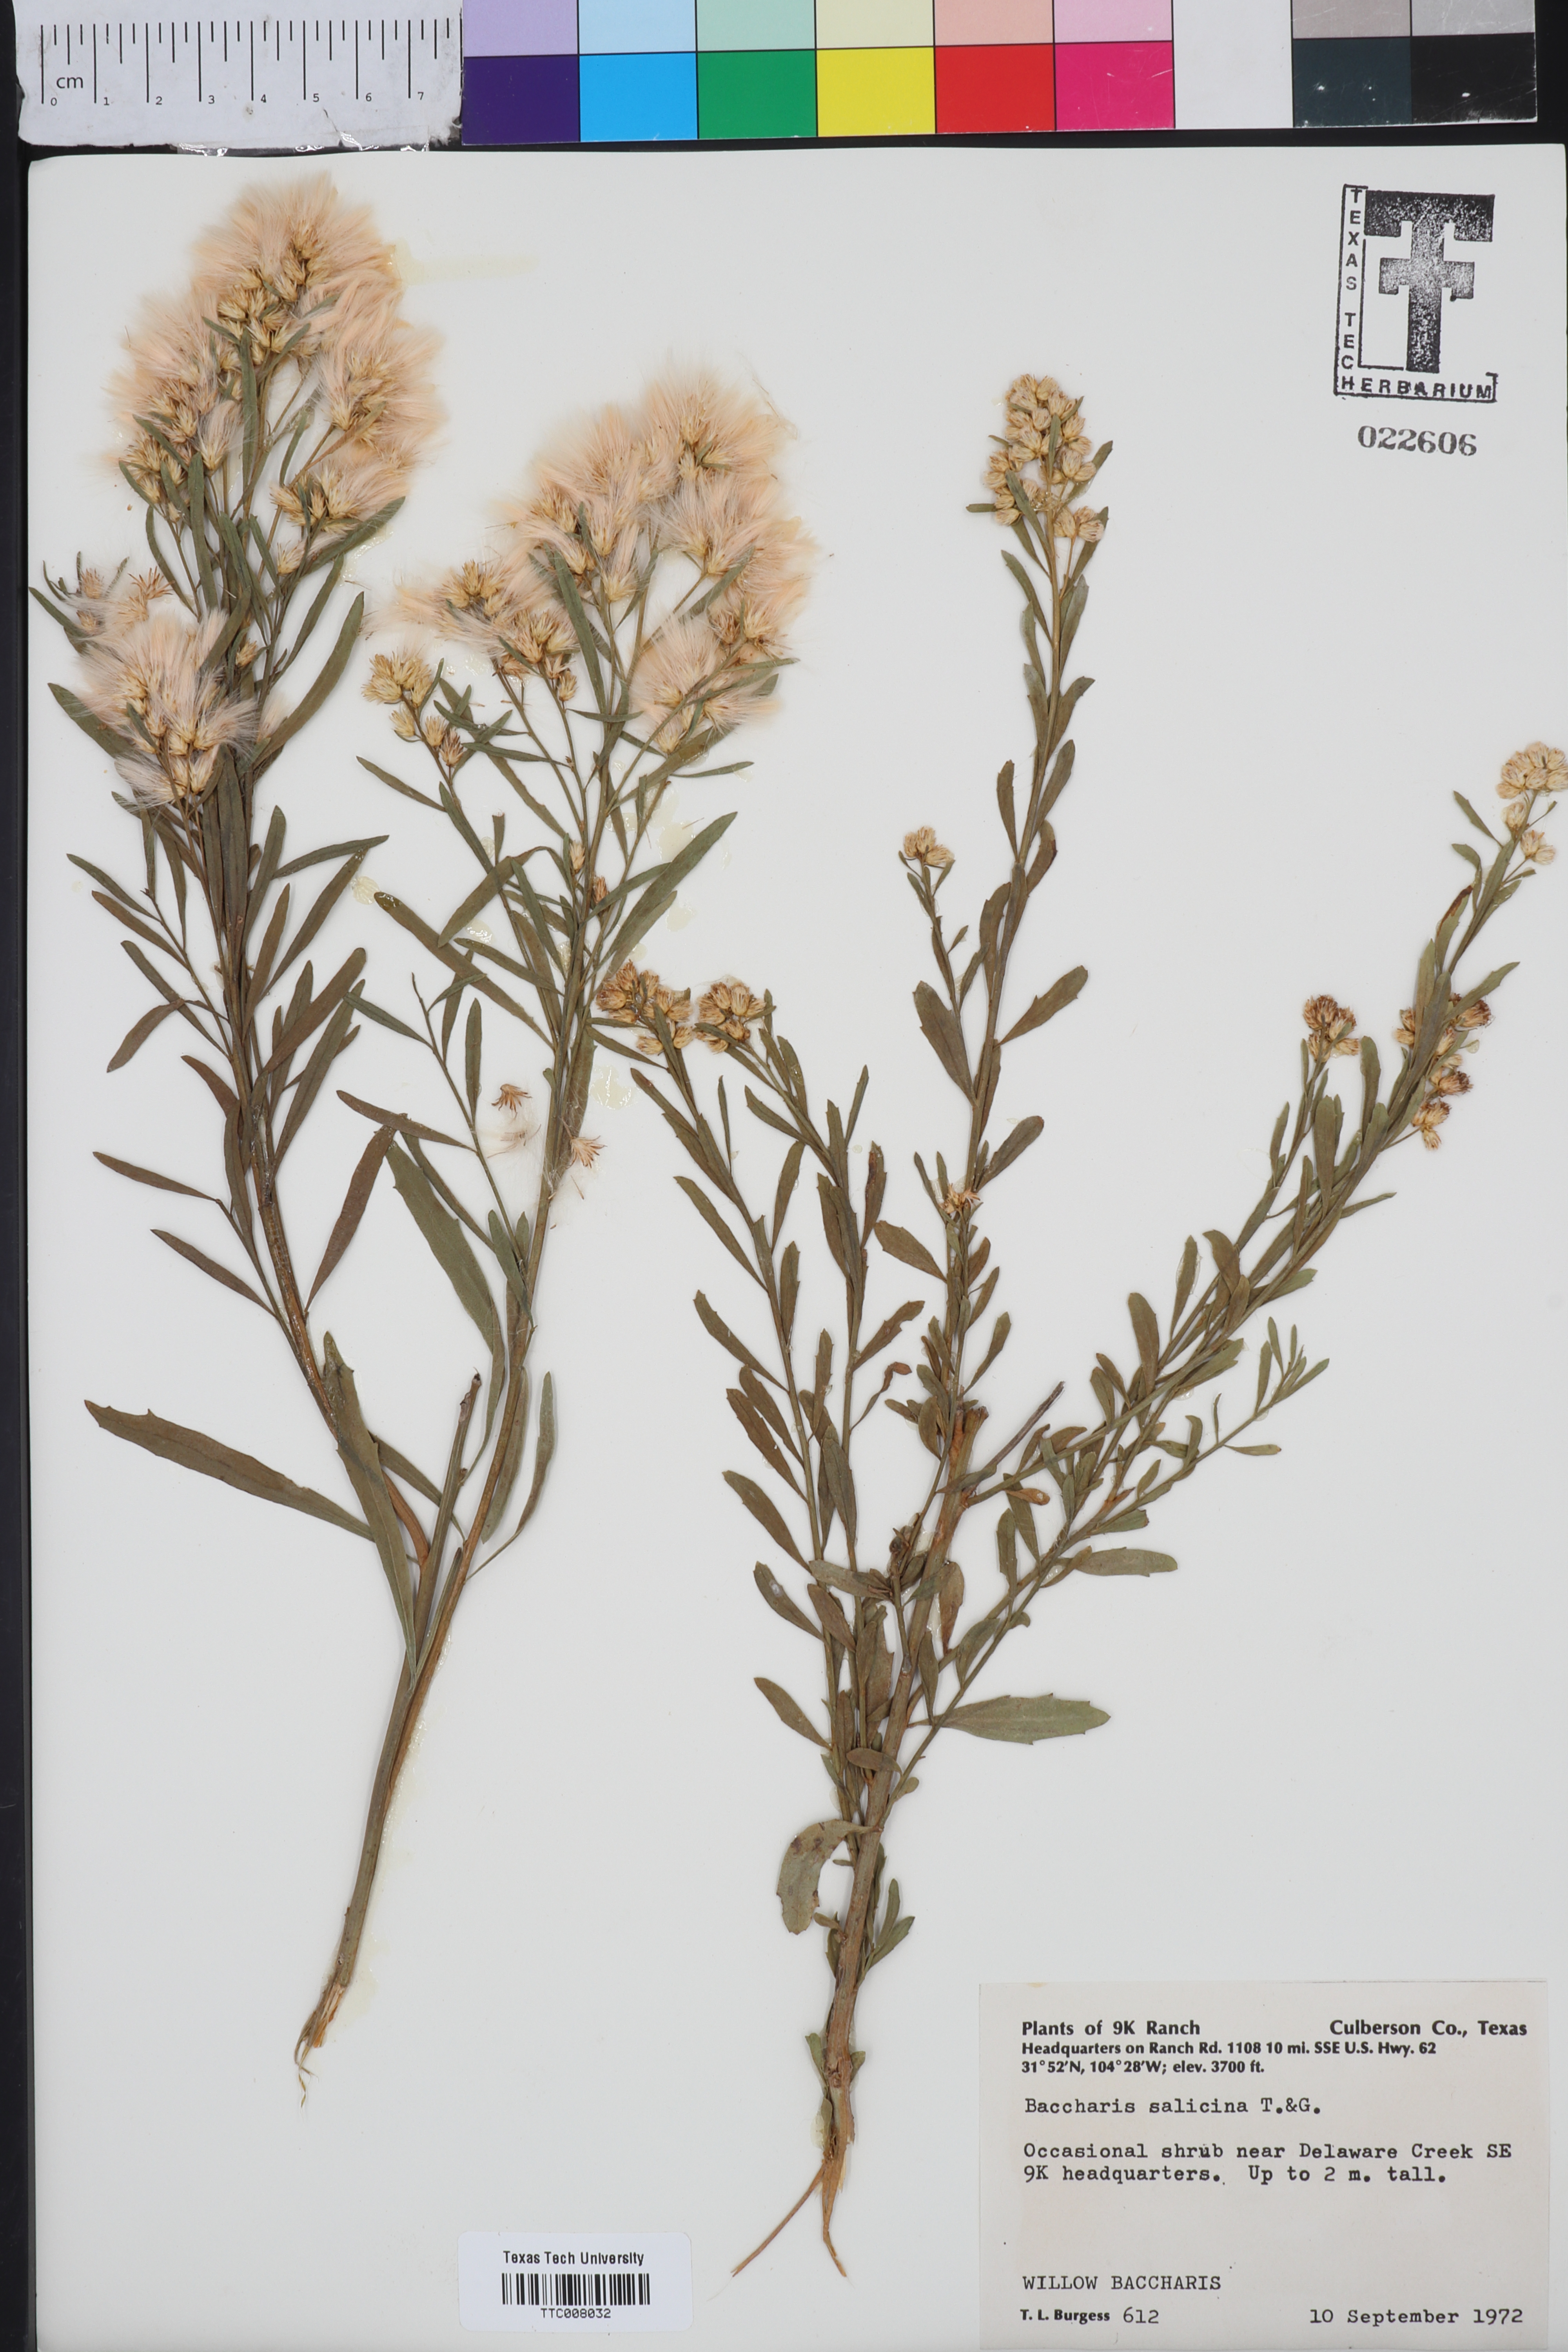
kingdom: Plantae
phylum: Tracheophyta
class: Magnoliopsida
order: Asterales
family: Asteraceae
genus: Baccharis
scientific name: Baccharis salicina
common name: Willow baccharis
